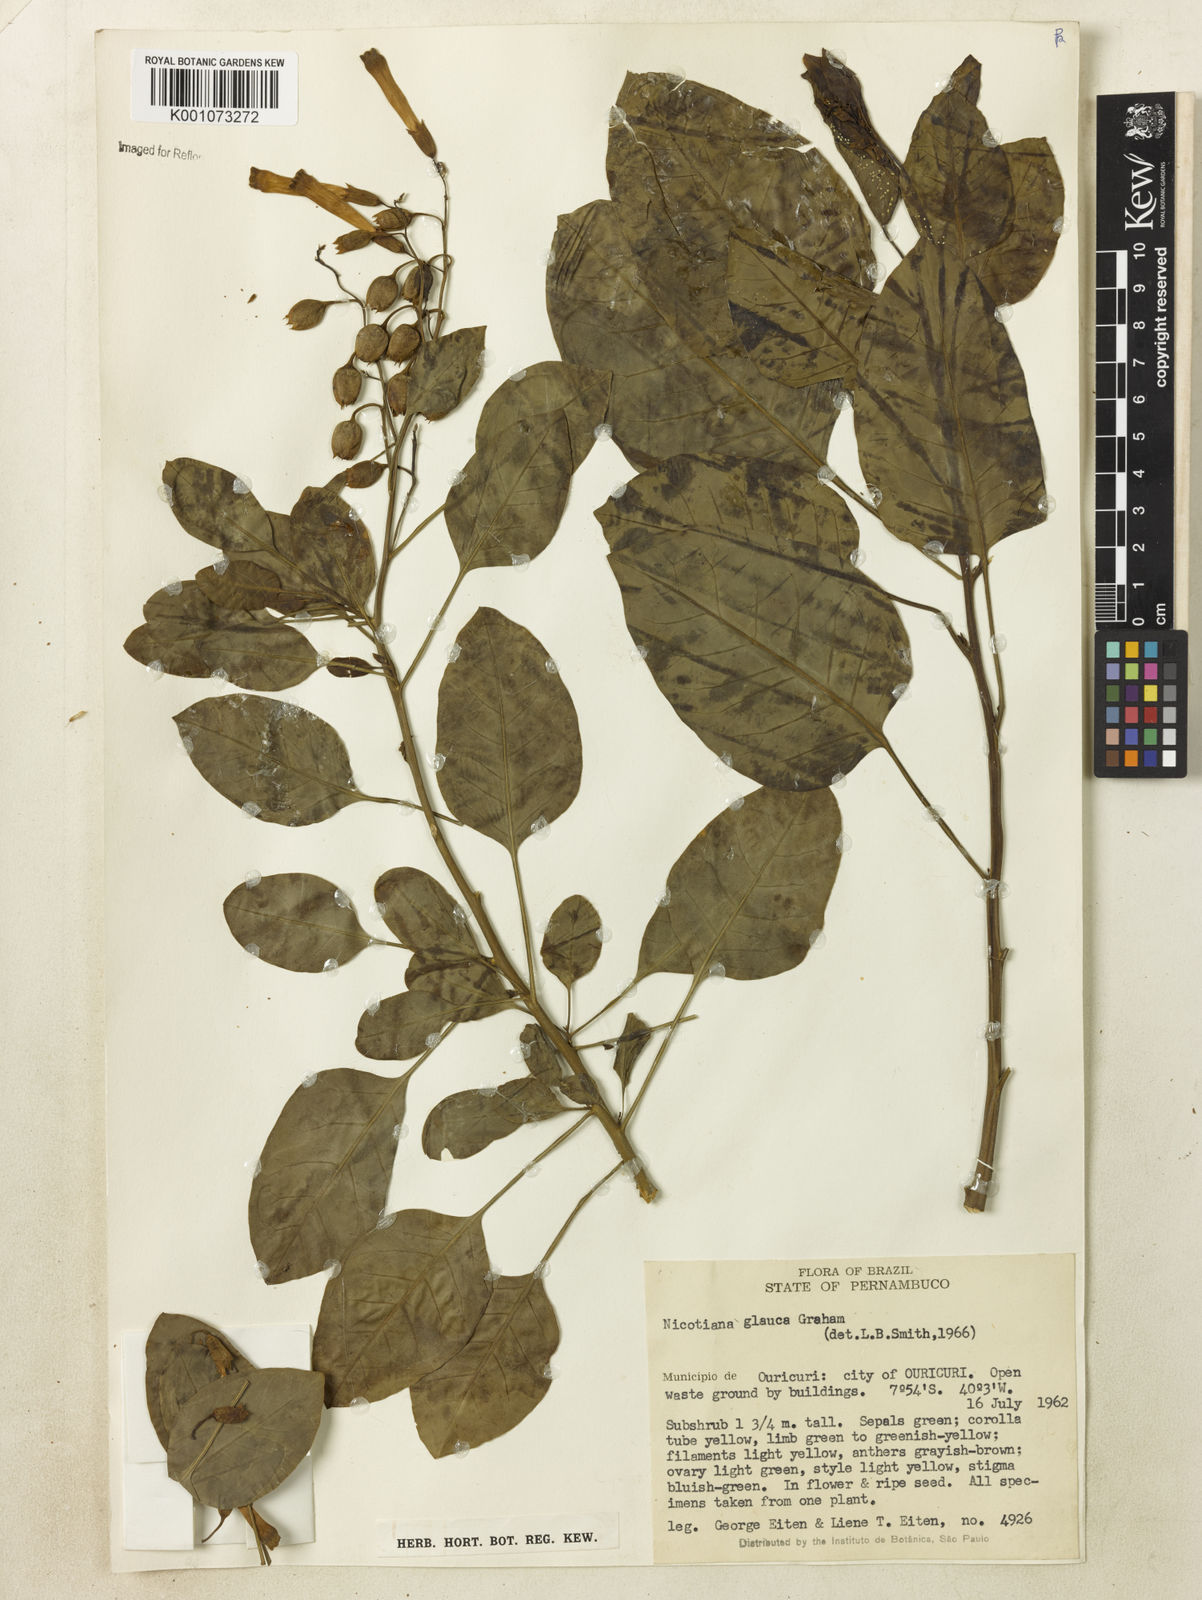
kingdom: Plantae
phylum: Tracheophyta
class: Magnoliopsida
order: Solanales
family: Solanaceae
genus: Nicotiana
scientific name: Nicotiana glauca
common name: Tree tobacco
